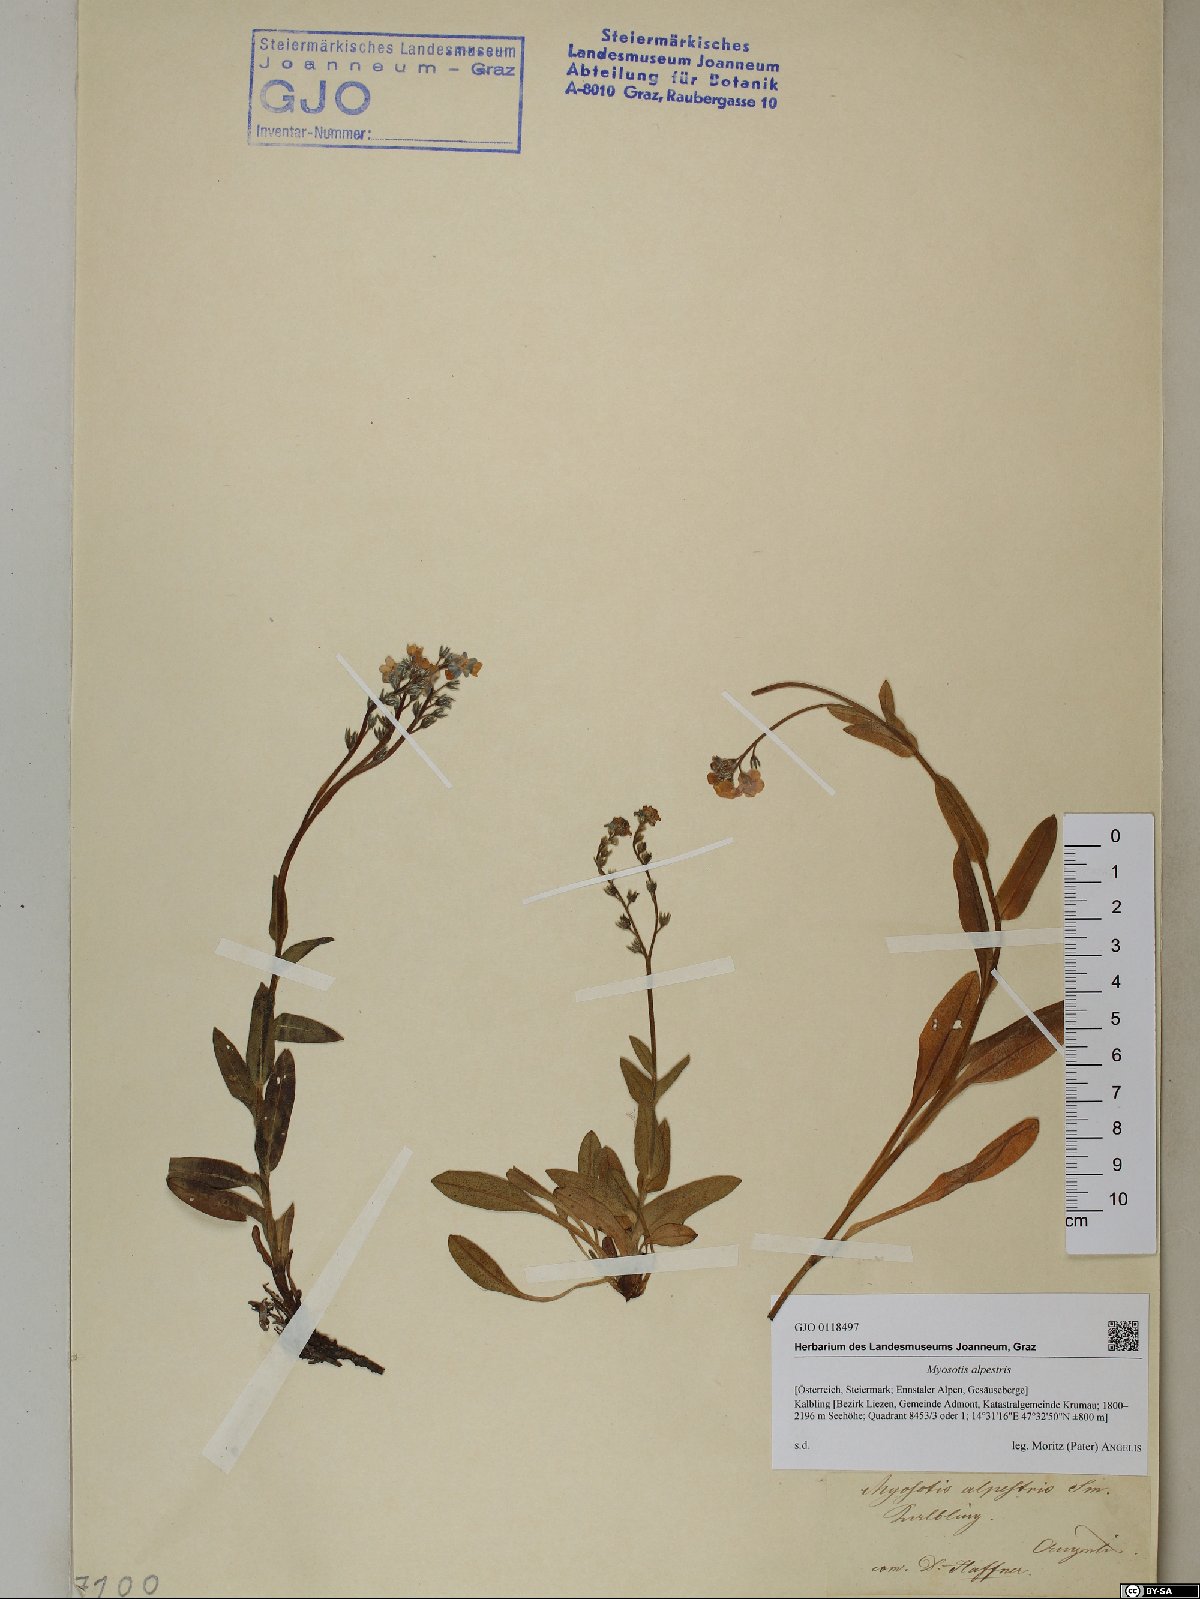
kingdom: Plantae
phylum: Tracheophyta
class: Magnoliopsida
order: Boraginales
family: Boraginaceae
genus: Myosotis
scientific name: Myosotis alpestris
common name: Alpine forget-me-not
